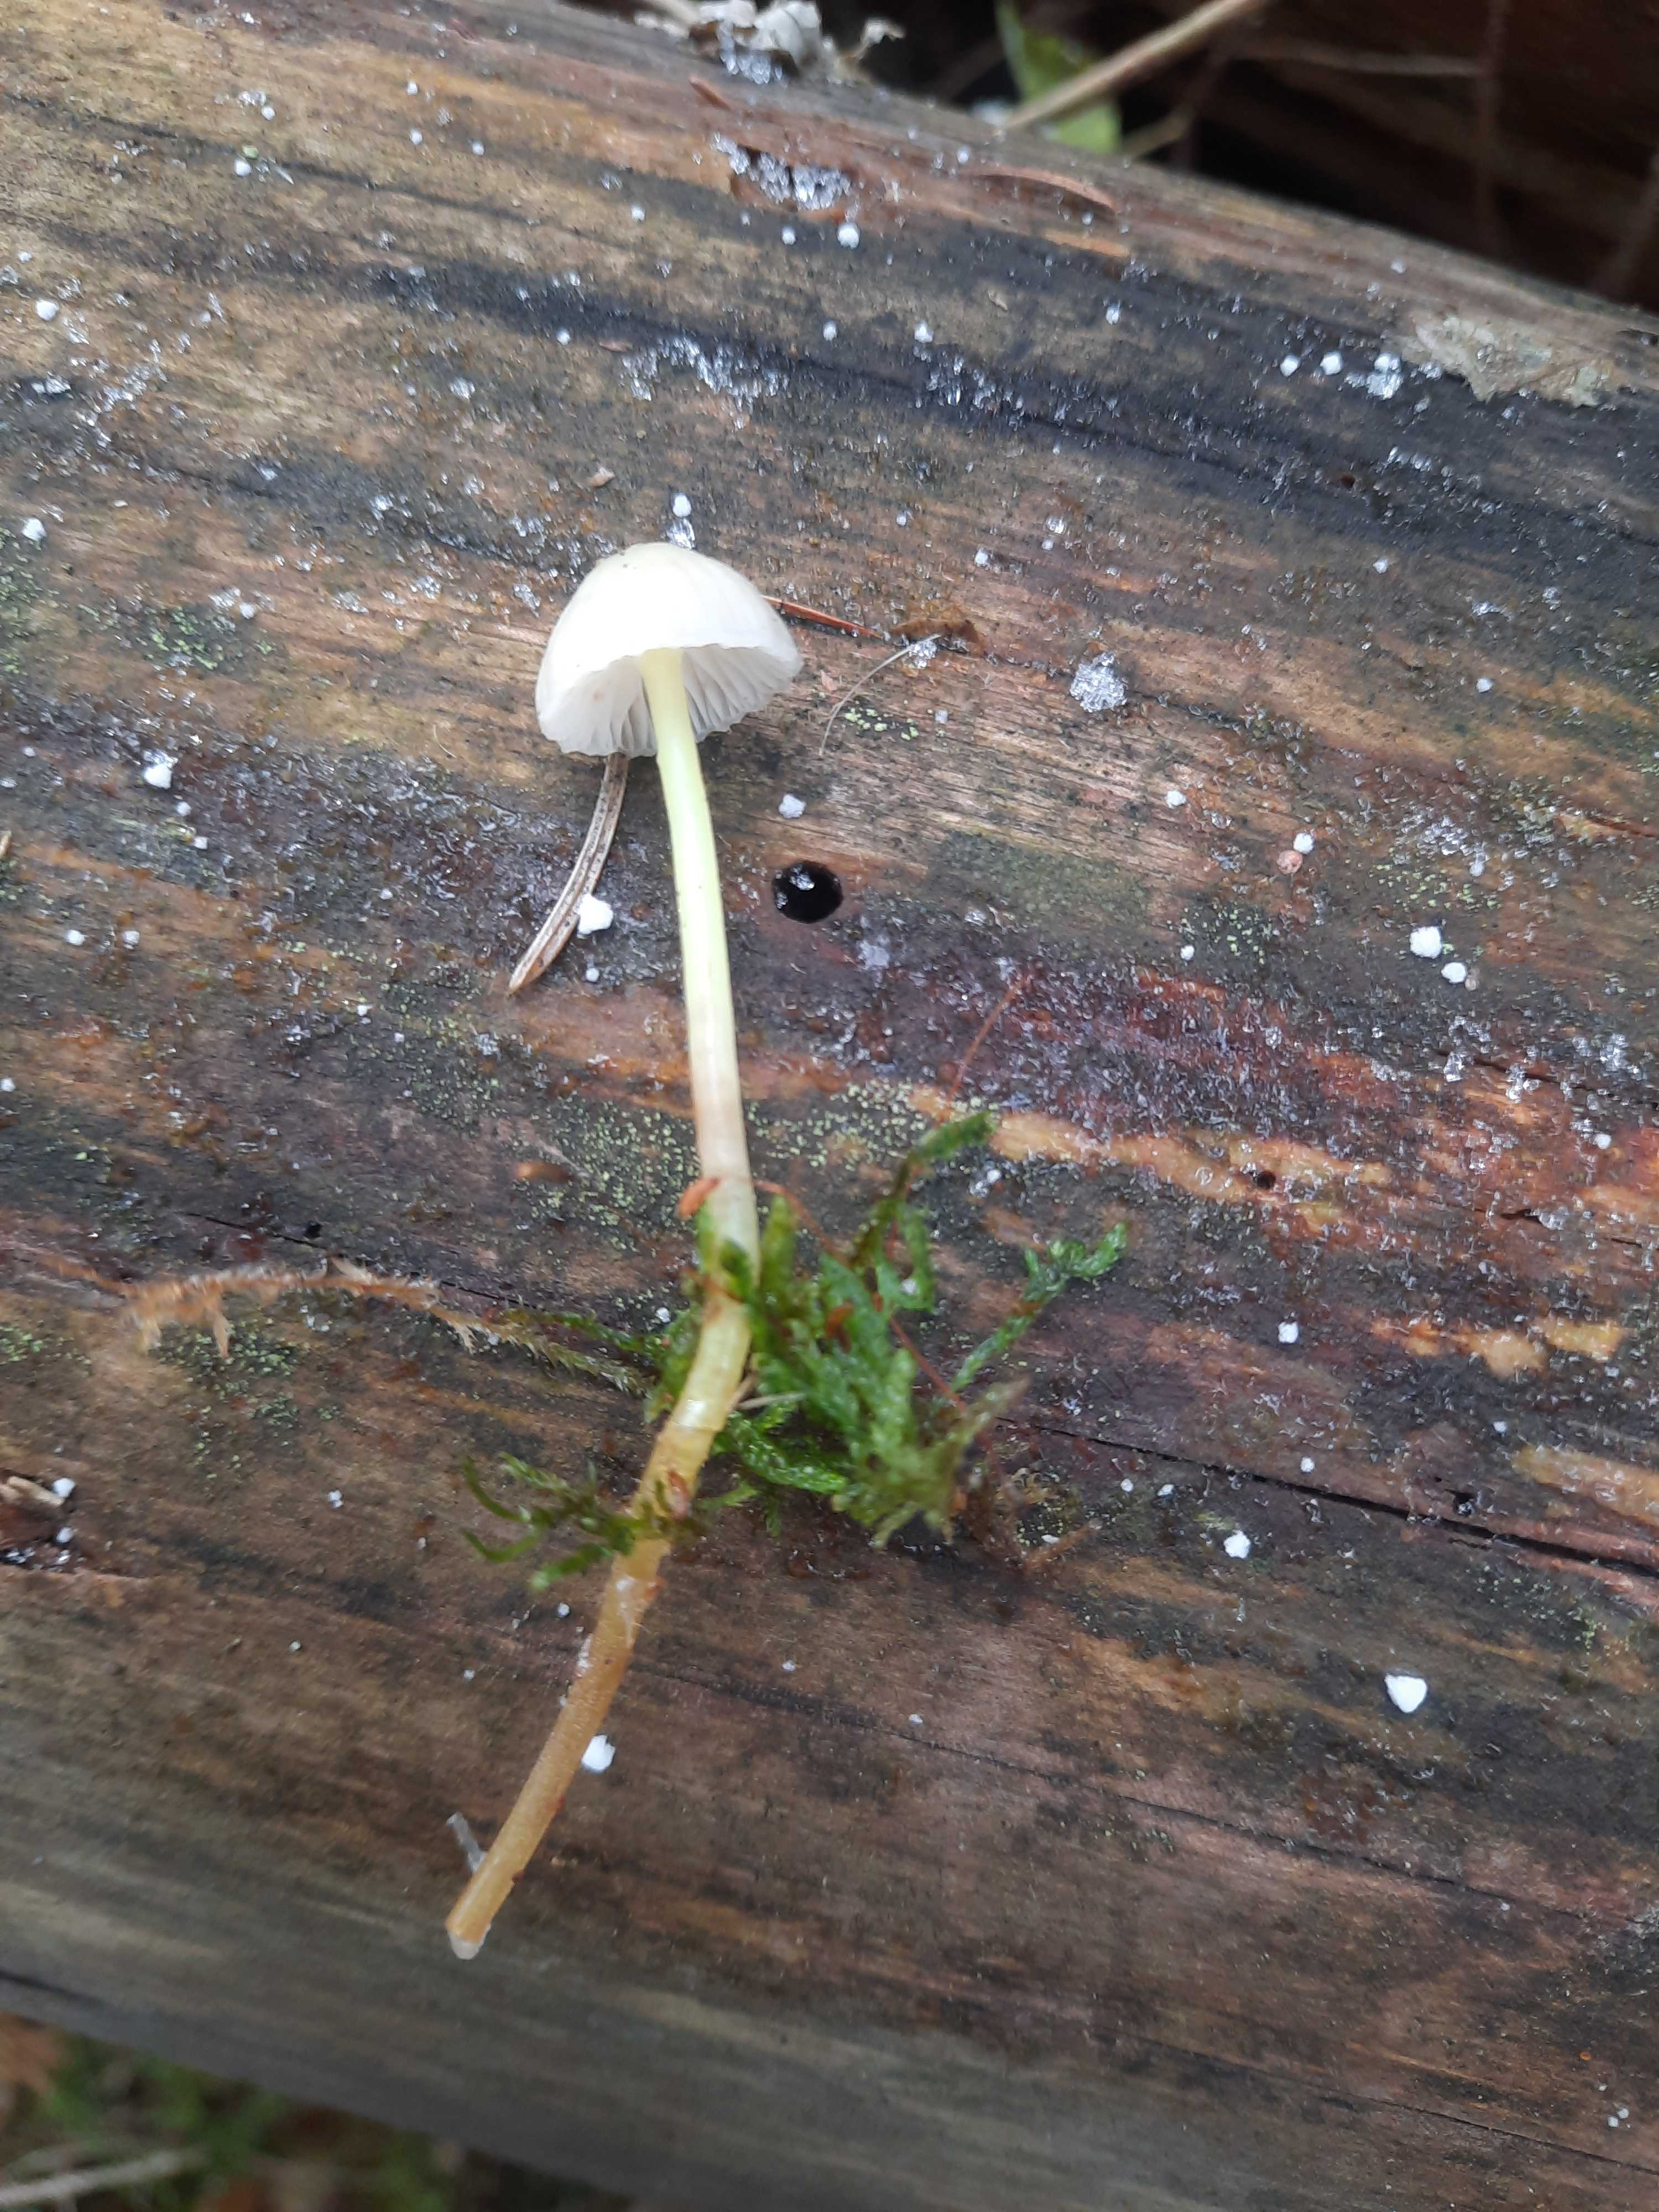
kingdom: Fungi
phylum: Basidiomycota
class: Agaricomycetes
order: Agaricales
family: Mycenaceae
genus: Mycena
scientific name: Mycena epipterygia
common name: gulstokket huesvamp
